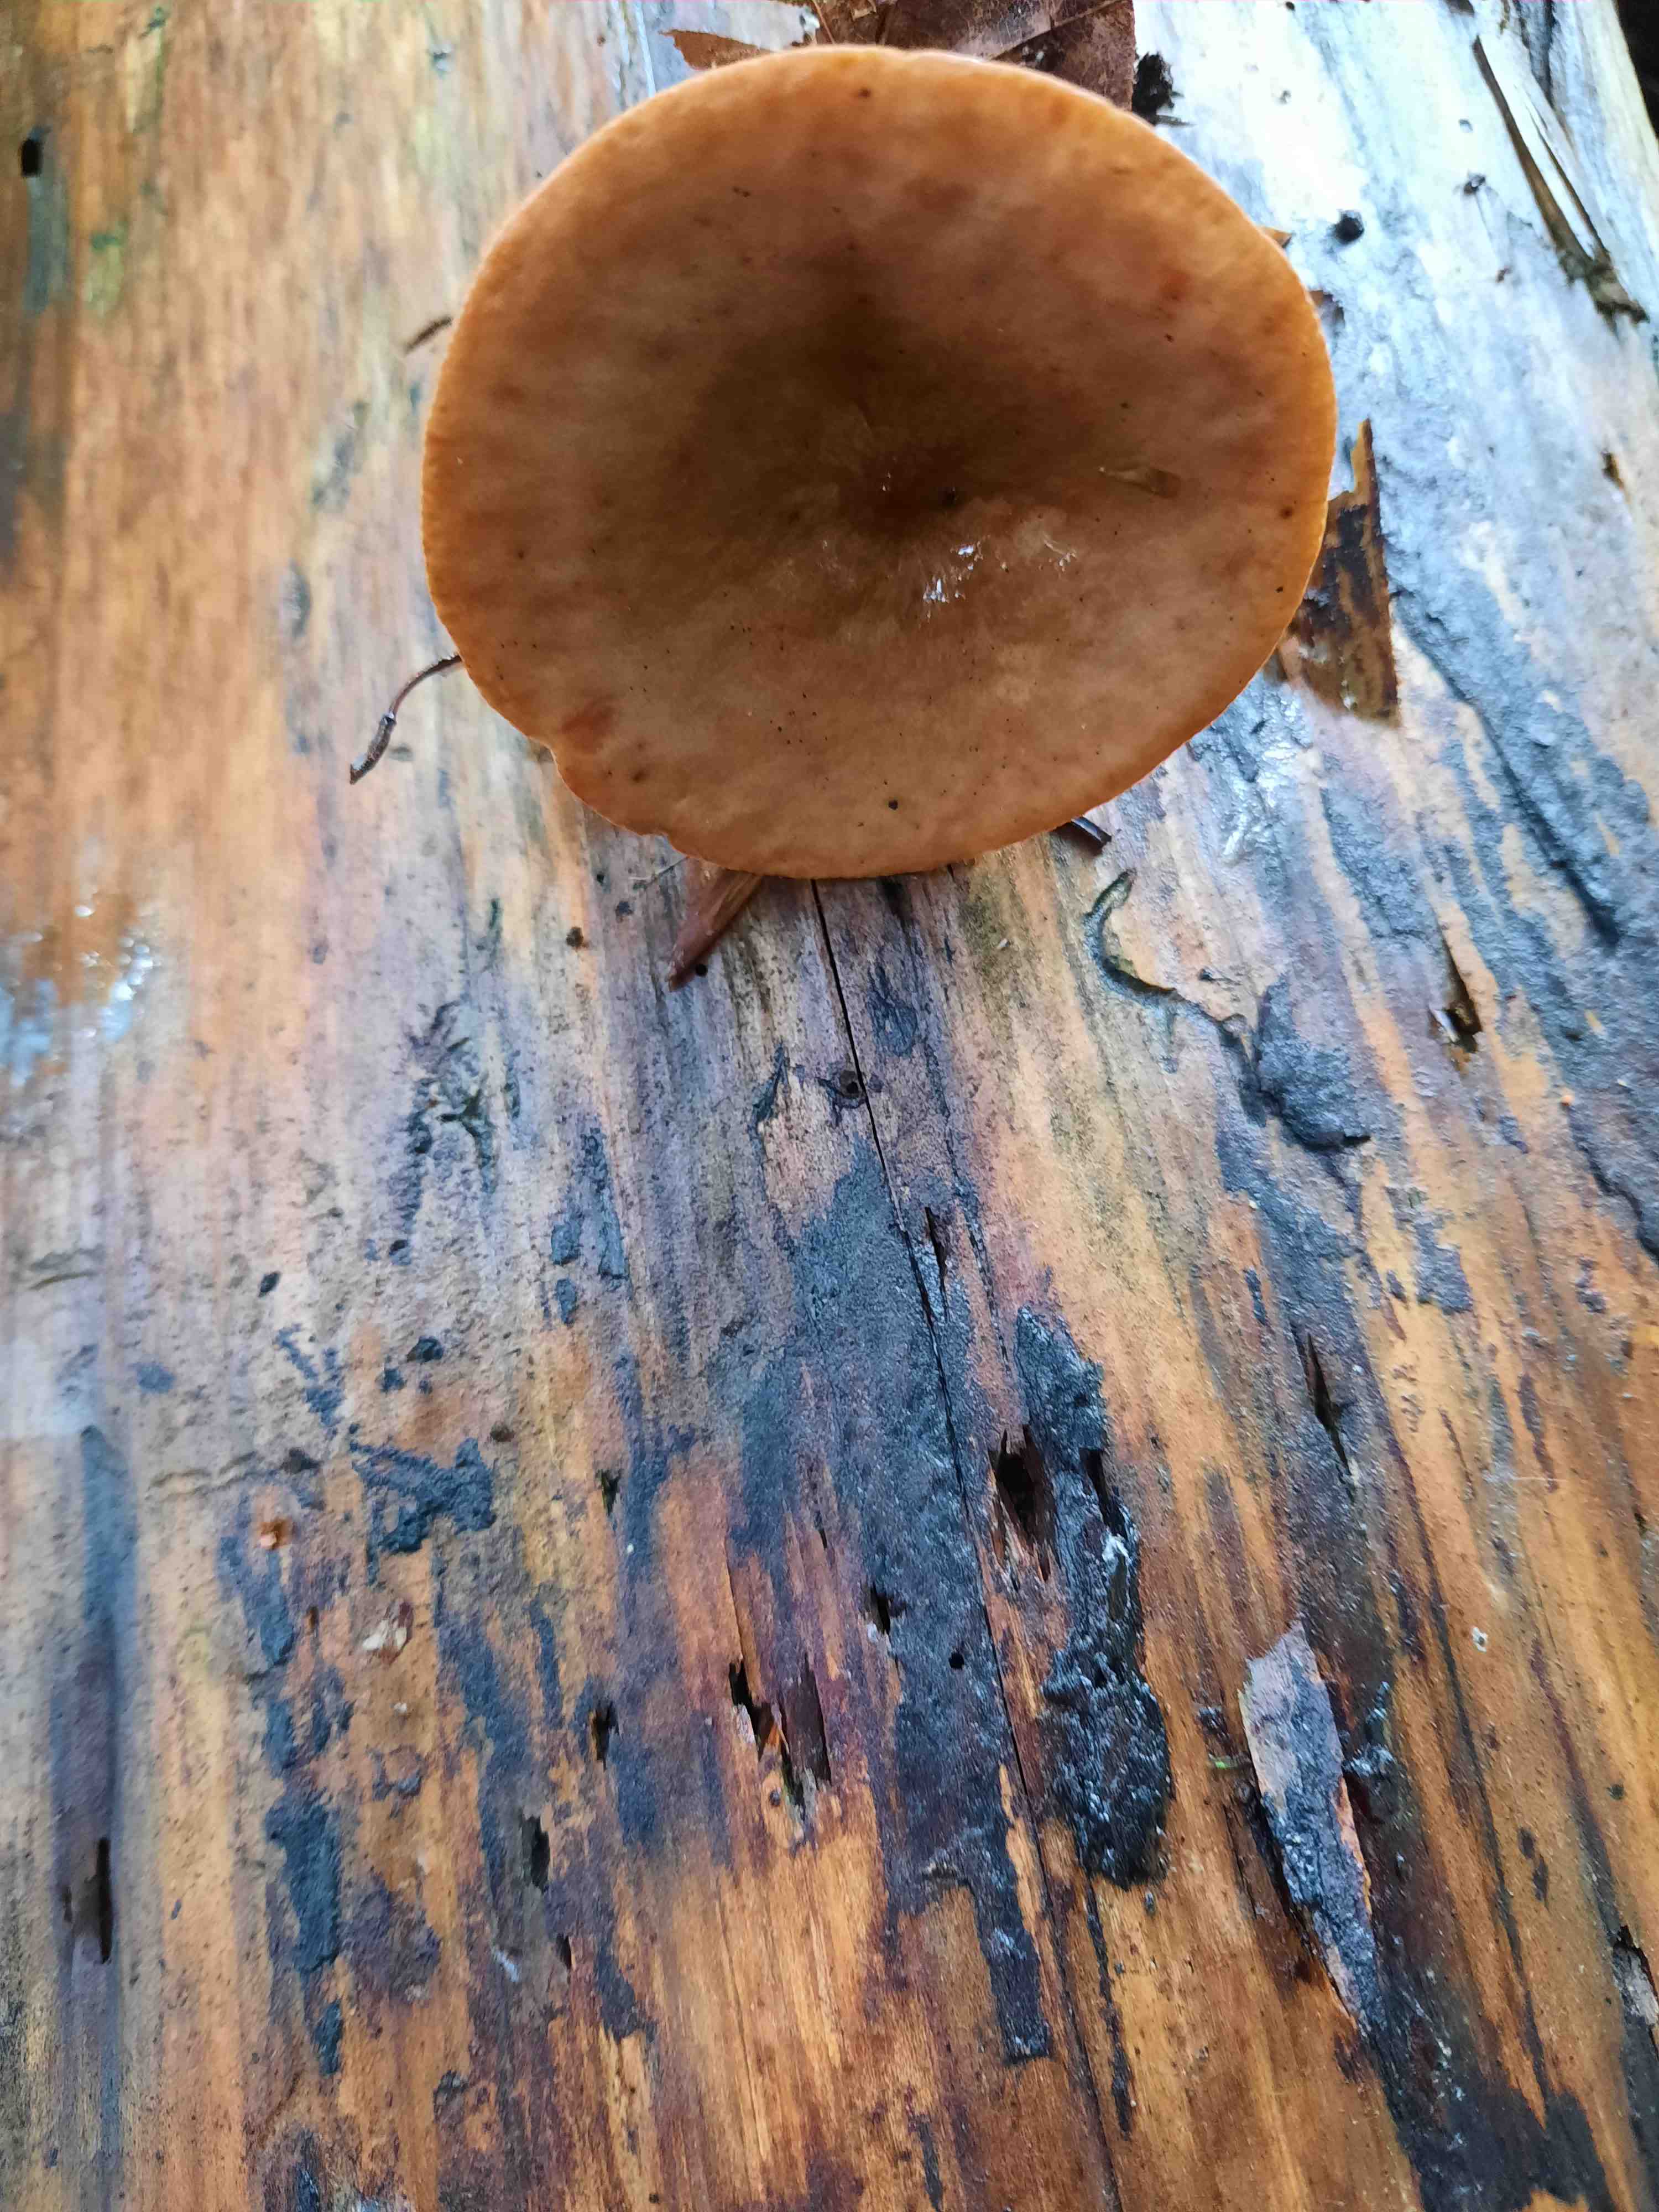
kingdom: Fungi
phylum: Basidiomycota
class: Agaricomycetes
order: Russulales
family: Russulaceae
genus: Lactarius
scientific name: Lactarius tabidus
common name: rynket mælkehat
